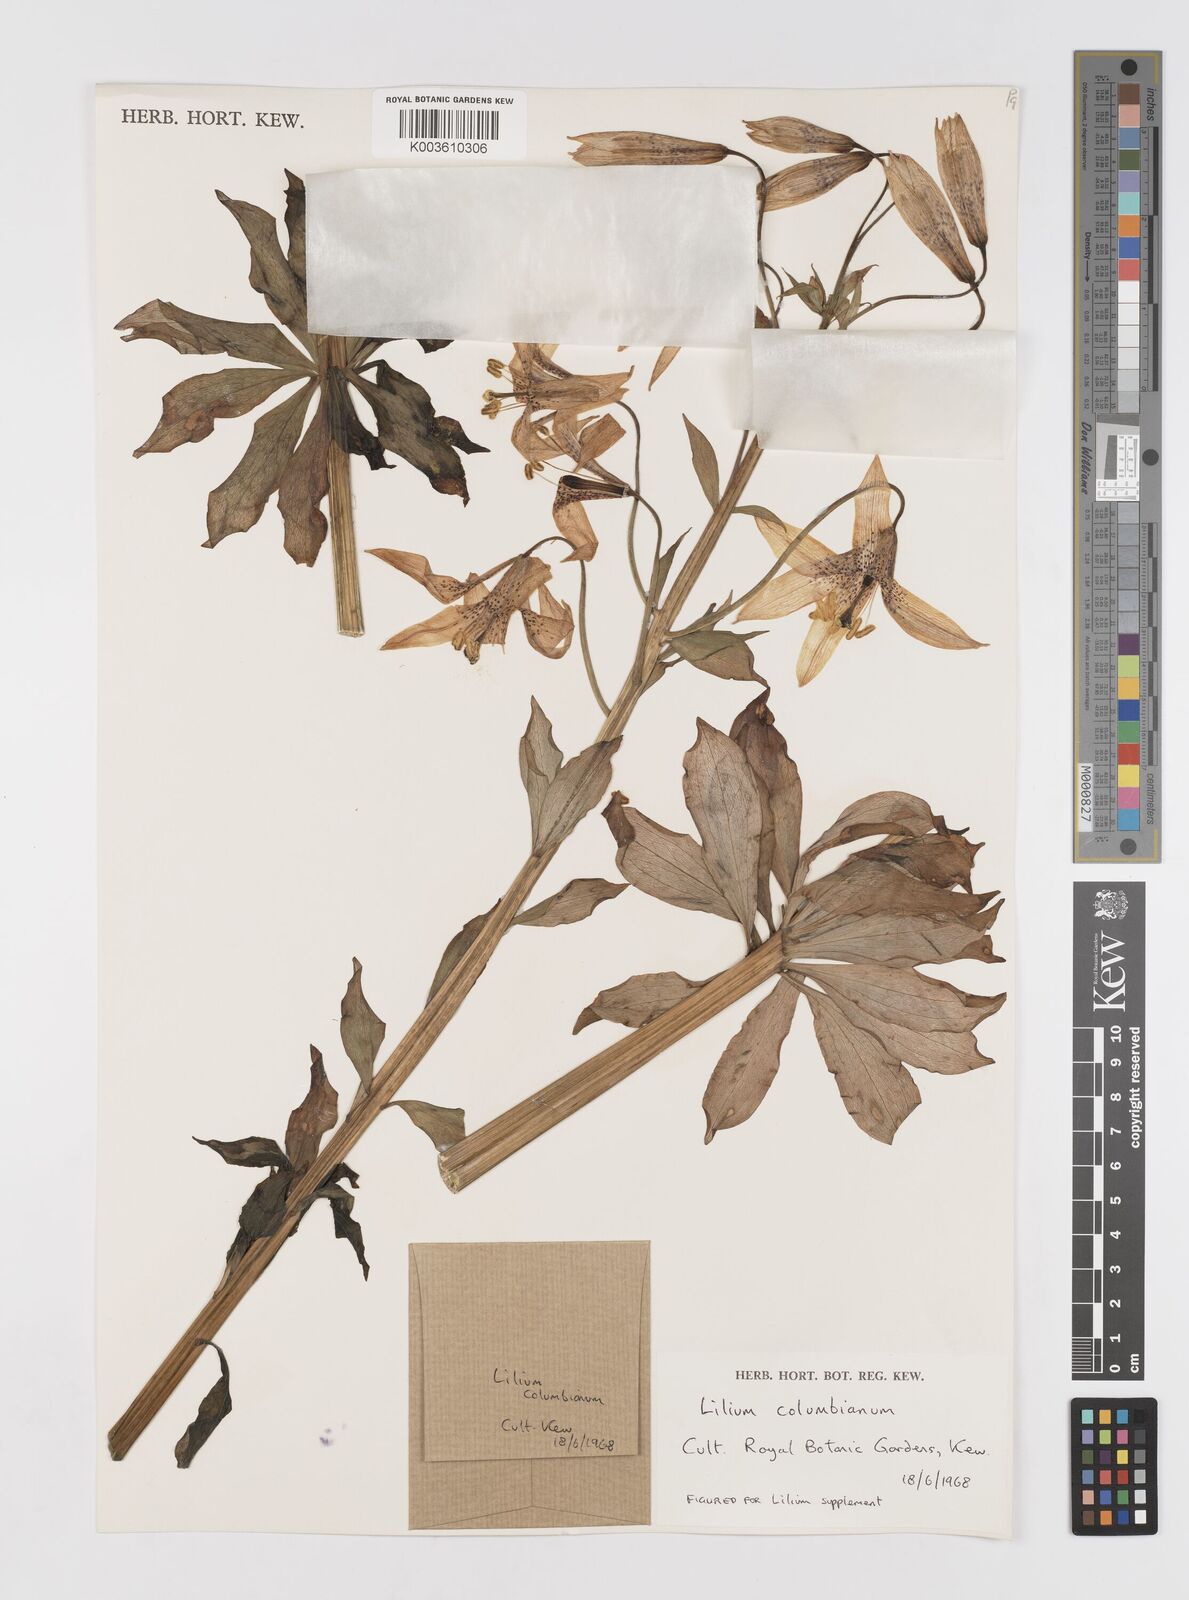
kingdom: Plantae
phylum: Tracheophyta
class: Liliopsida
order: Liliales
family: Liliaceae
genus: Lilium
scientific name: Lilium columbianum
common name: Columbia lily
